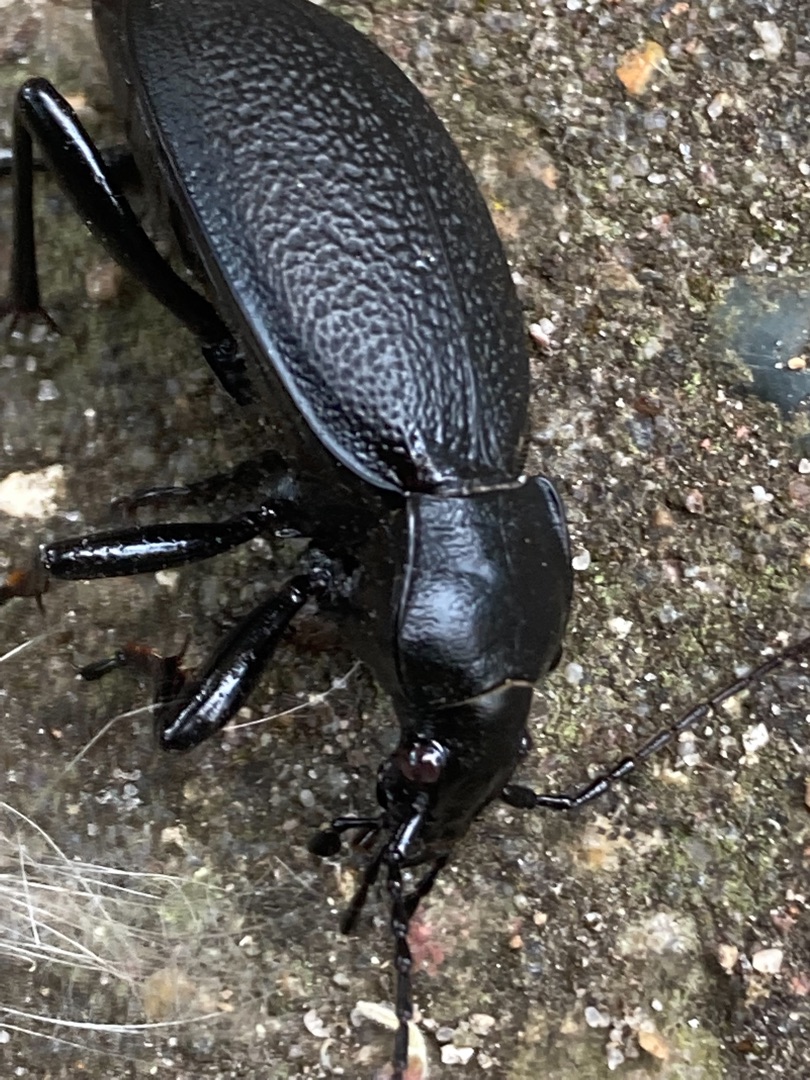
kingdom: Animalia
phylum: Arthropoda
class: Insecta
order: Coleoptera
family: Carabidae
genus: Carabus
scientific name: Carabus coriaceus
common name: Læderløber
